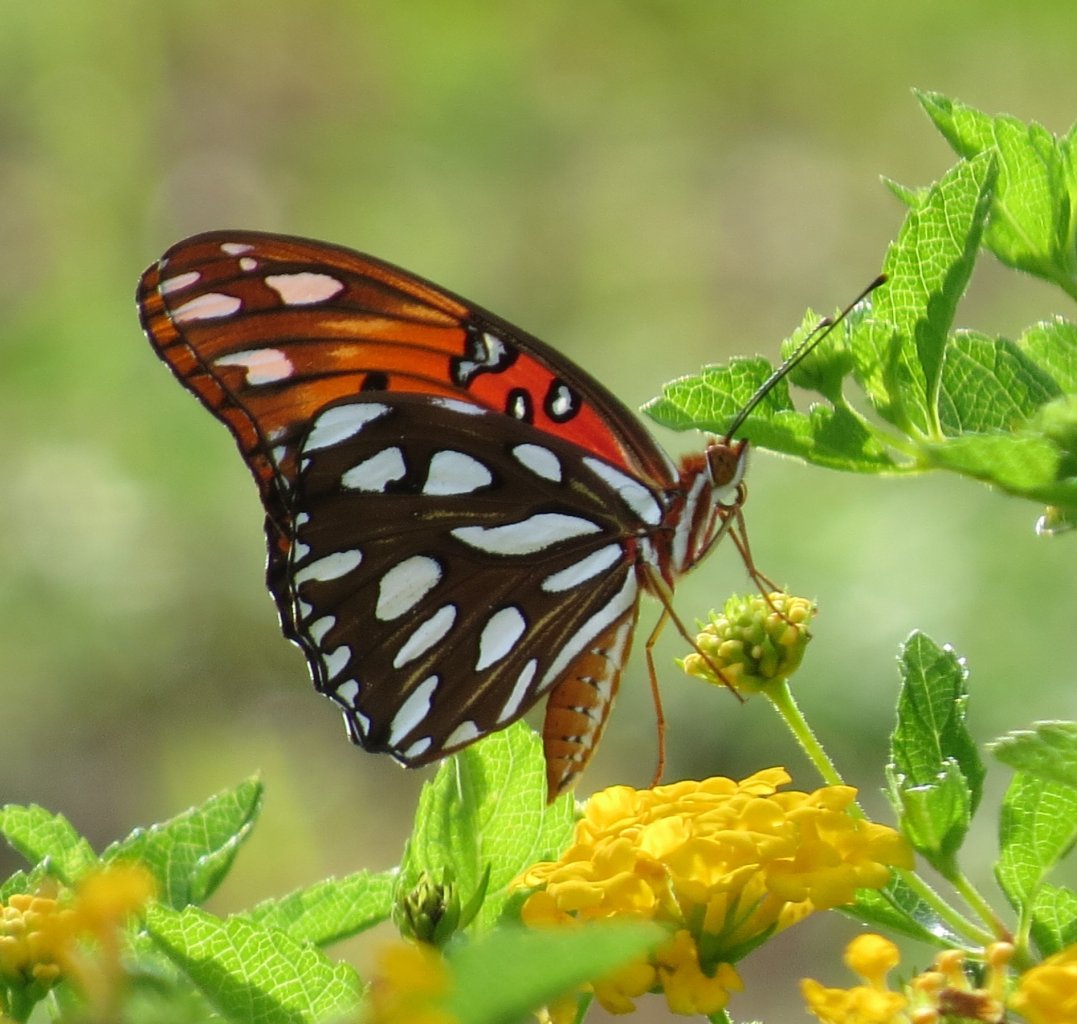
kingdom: Animalia
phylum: Arthropoda
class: Insecta
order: Lepidoptera
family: Nymphalidae
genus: Dione
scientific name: Dione vanillae
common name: Gulf Fritillary
